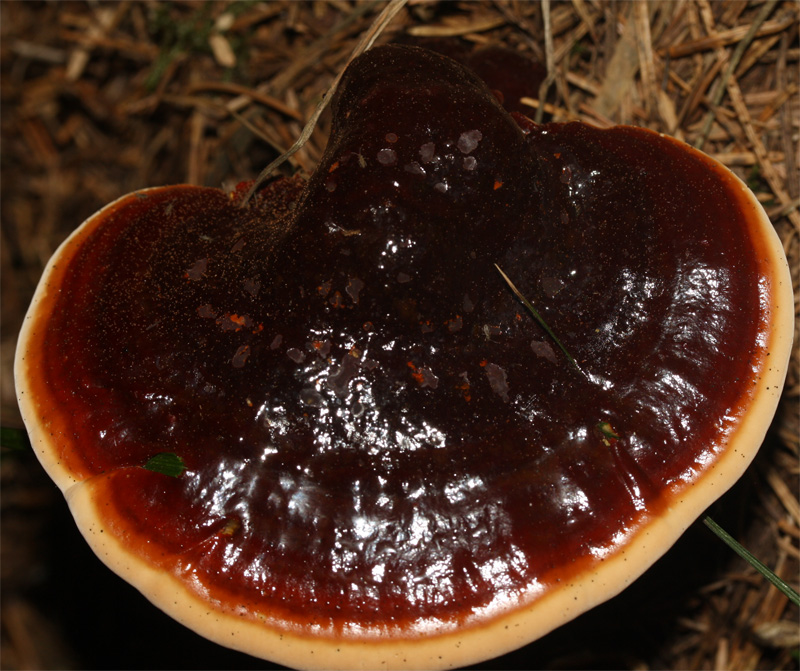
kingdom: Fungi
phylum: Basidiomycota
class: Agaricomycetes
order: Polyporales
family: Polyporaceae
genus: Ganoderma
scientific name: Ganoderma lucidum
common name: skinnende lakporesvamp
